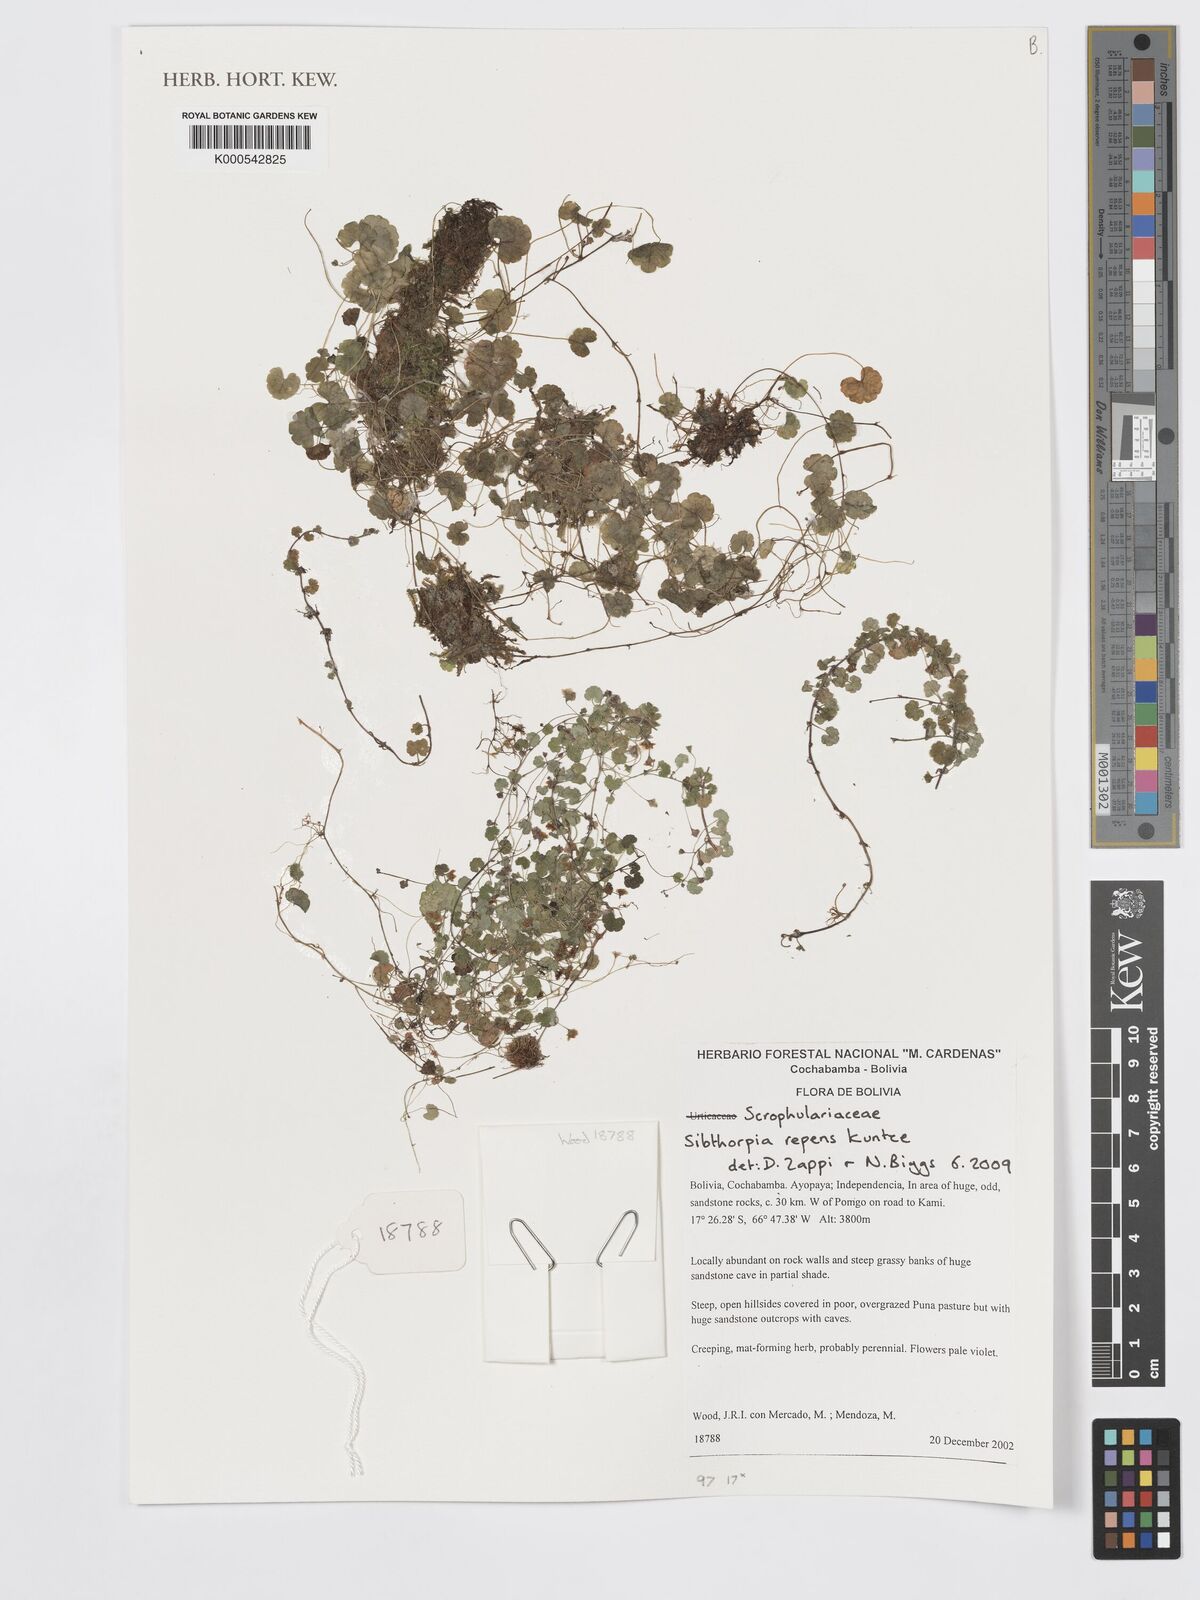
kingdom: Plantae
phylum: Tracheophyta
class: Magnoliopsida
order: Lamiales
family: Plantaginaceae
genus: Sibthorpia
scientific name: Sibthorpia repens
